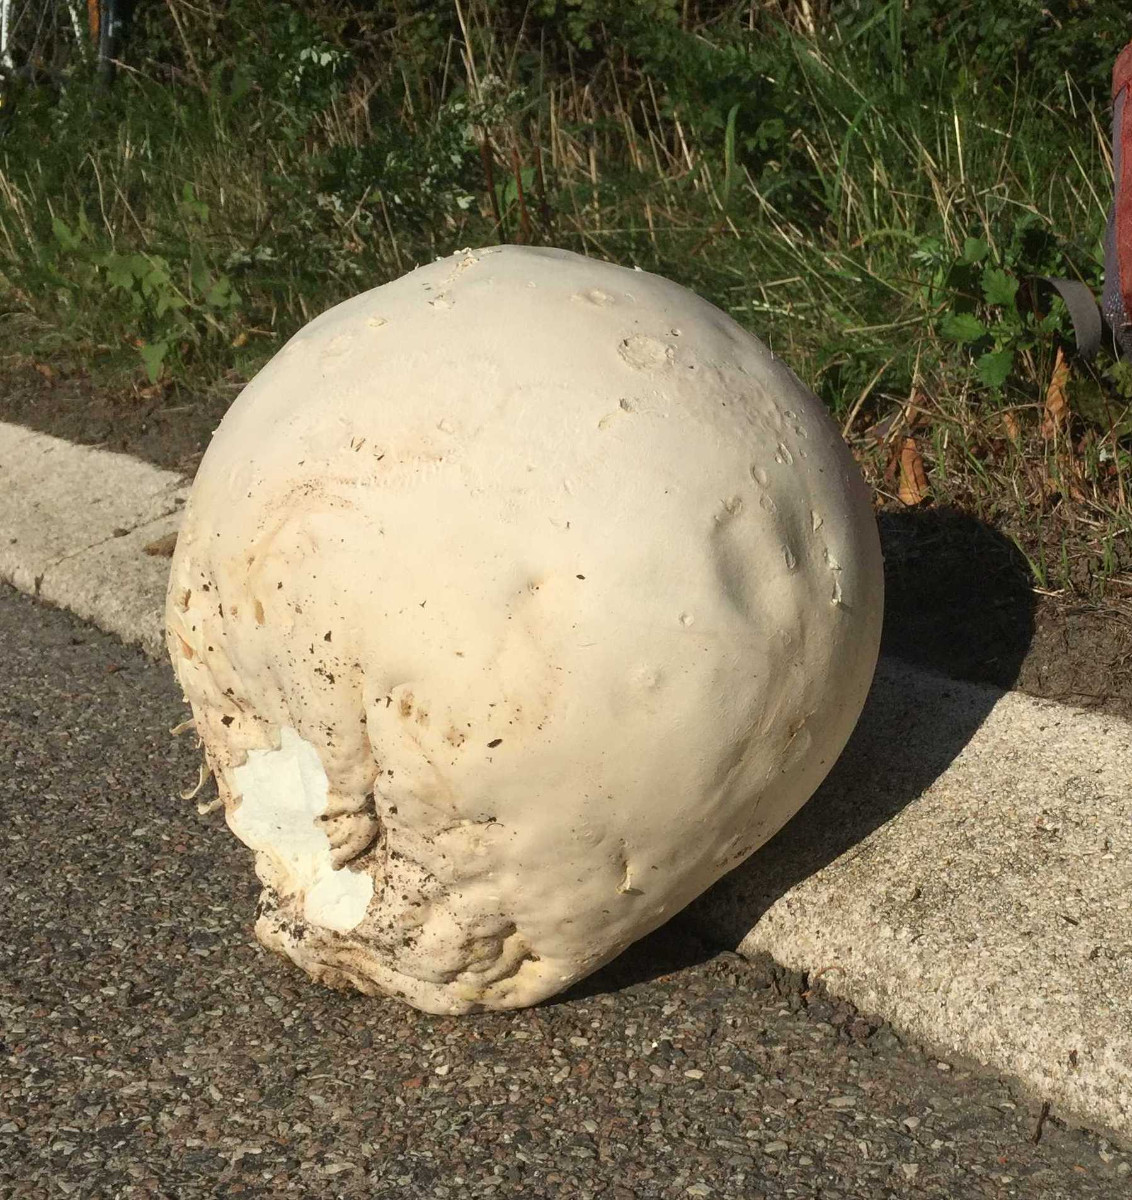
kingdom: Fungi
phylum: Basidiomycota
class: Agaricomycetes
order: Agaricales
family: Lycoperdaceae
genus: Calvatia
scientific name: Calvatia gigantea
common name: kæmpestøvbold
